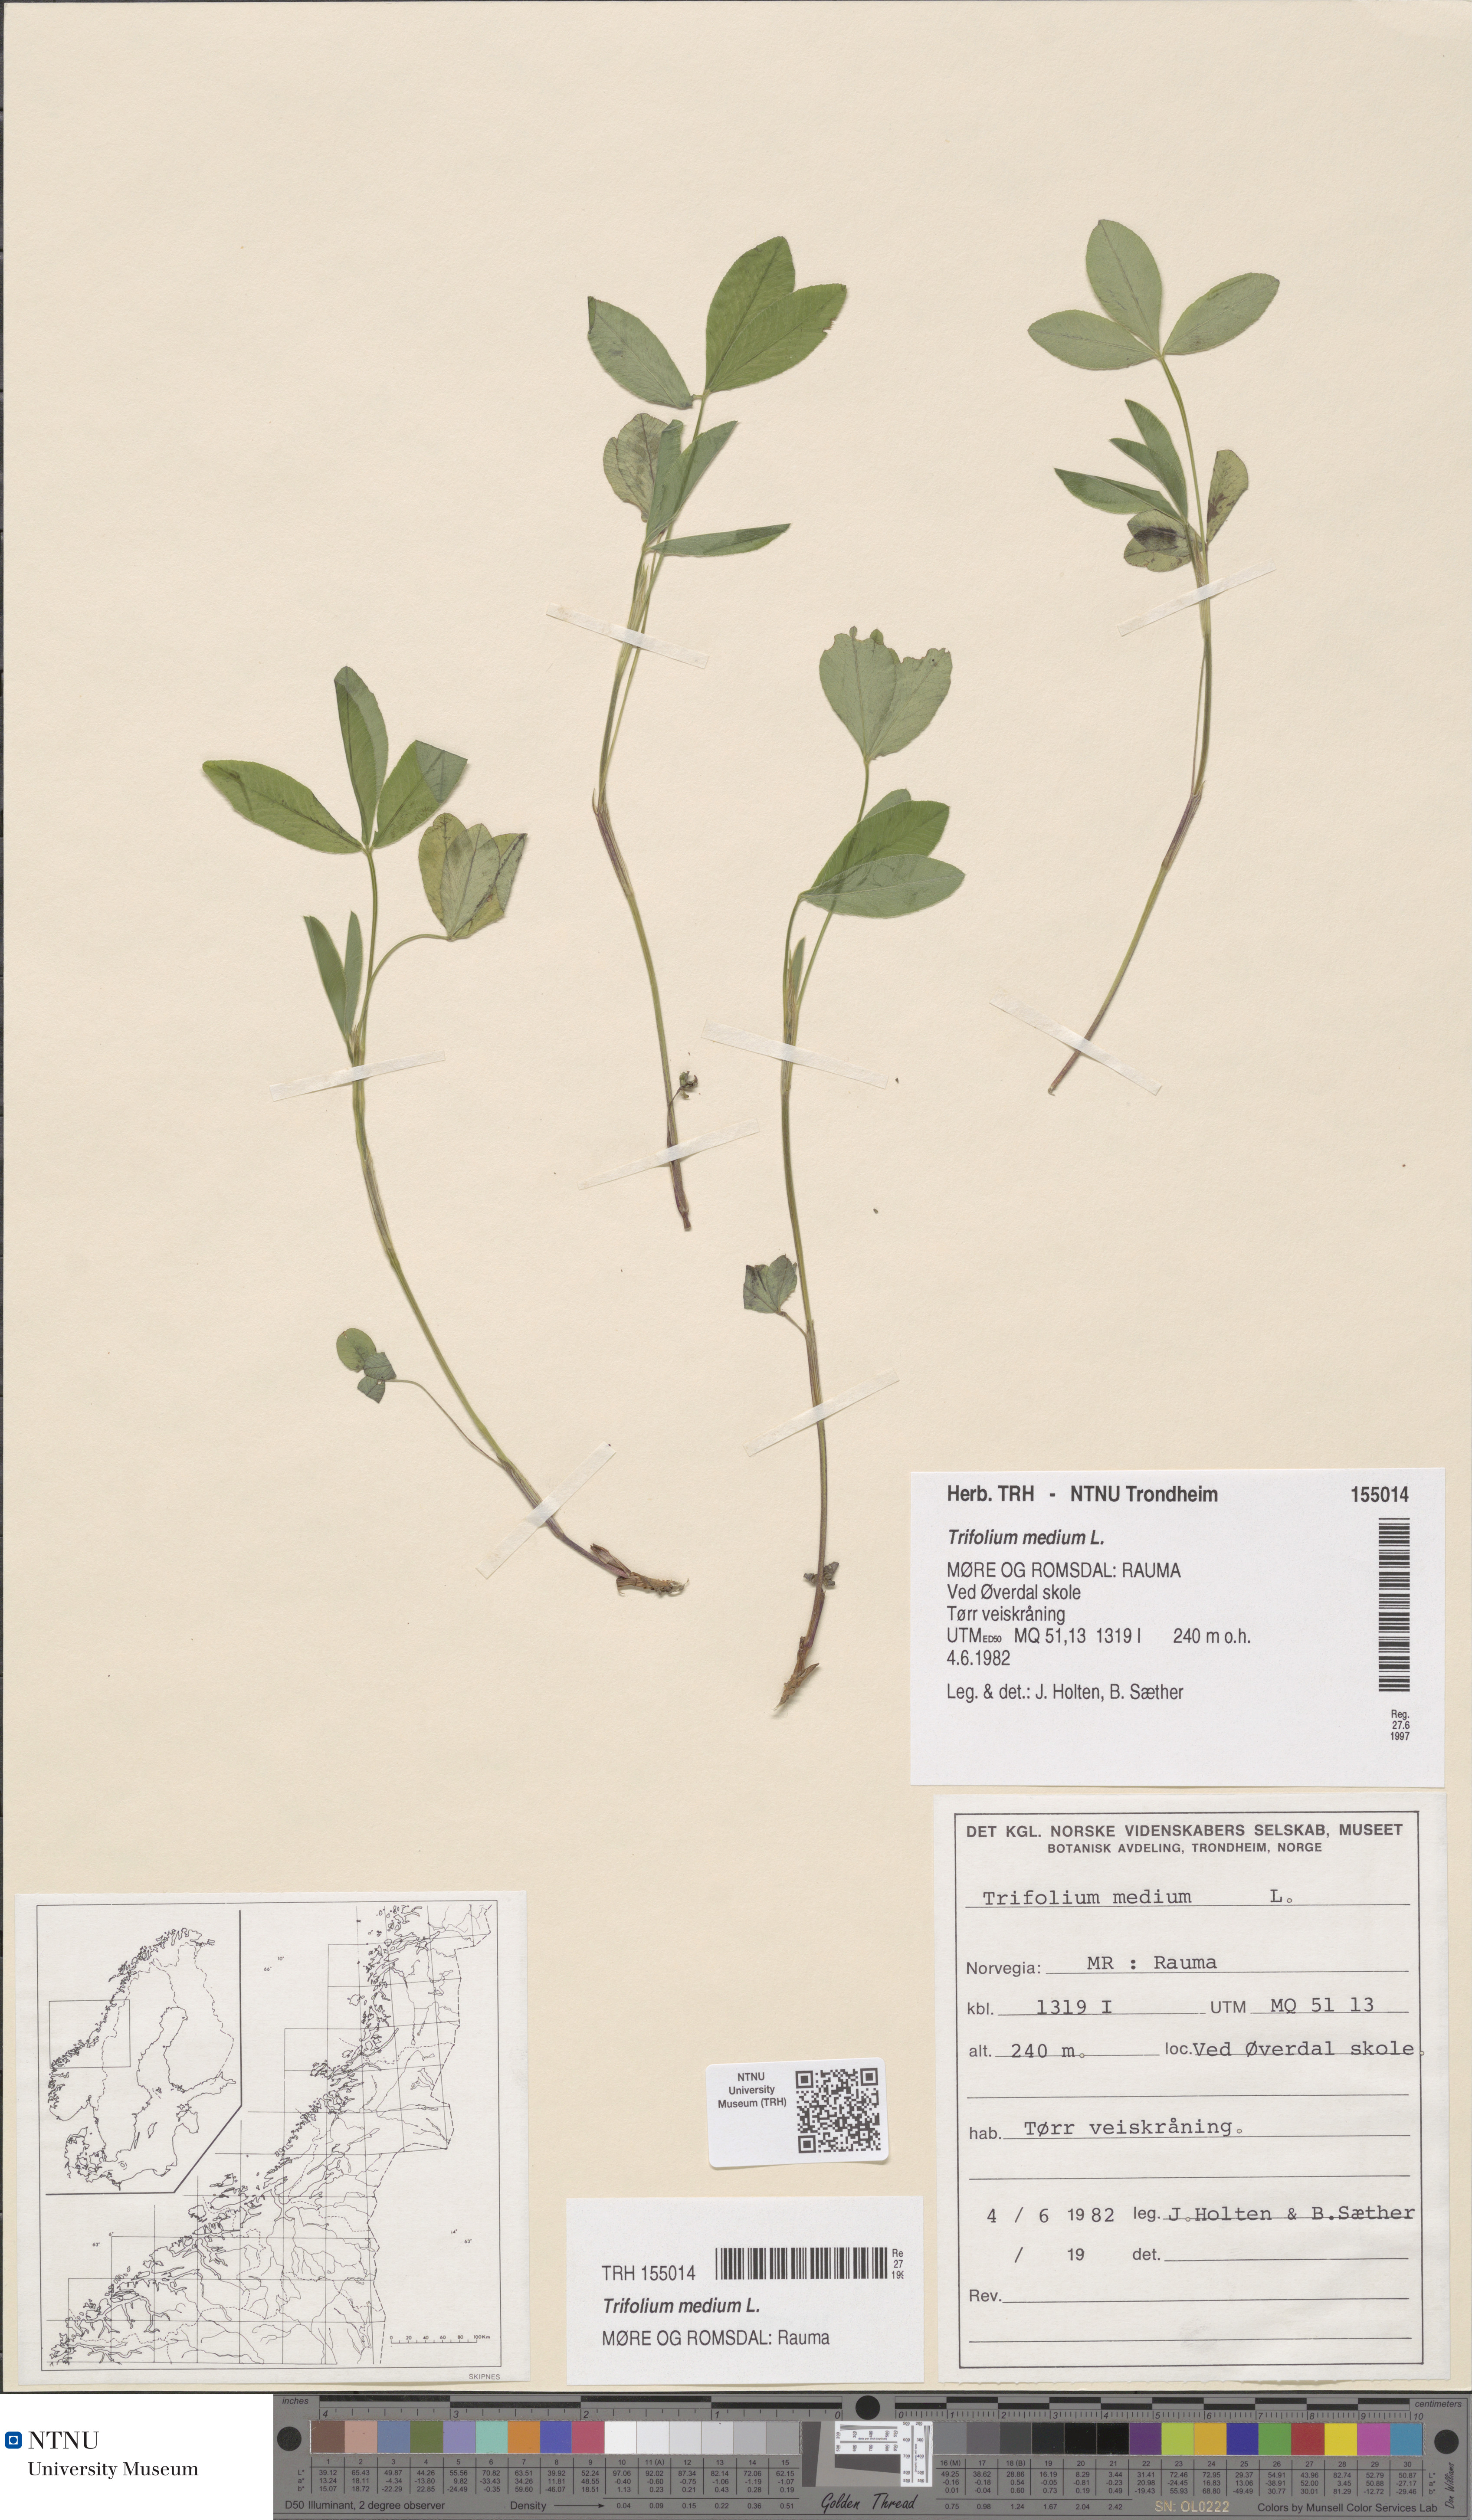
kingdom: Plantae
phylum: Tracheophyta
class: Magnoliopsida
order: Fabales
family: Fabaceae
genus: Trifolium
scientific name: Trifolium medium
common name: Zigzag clover
